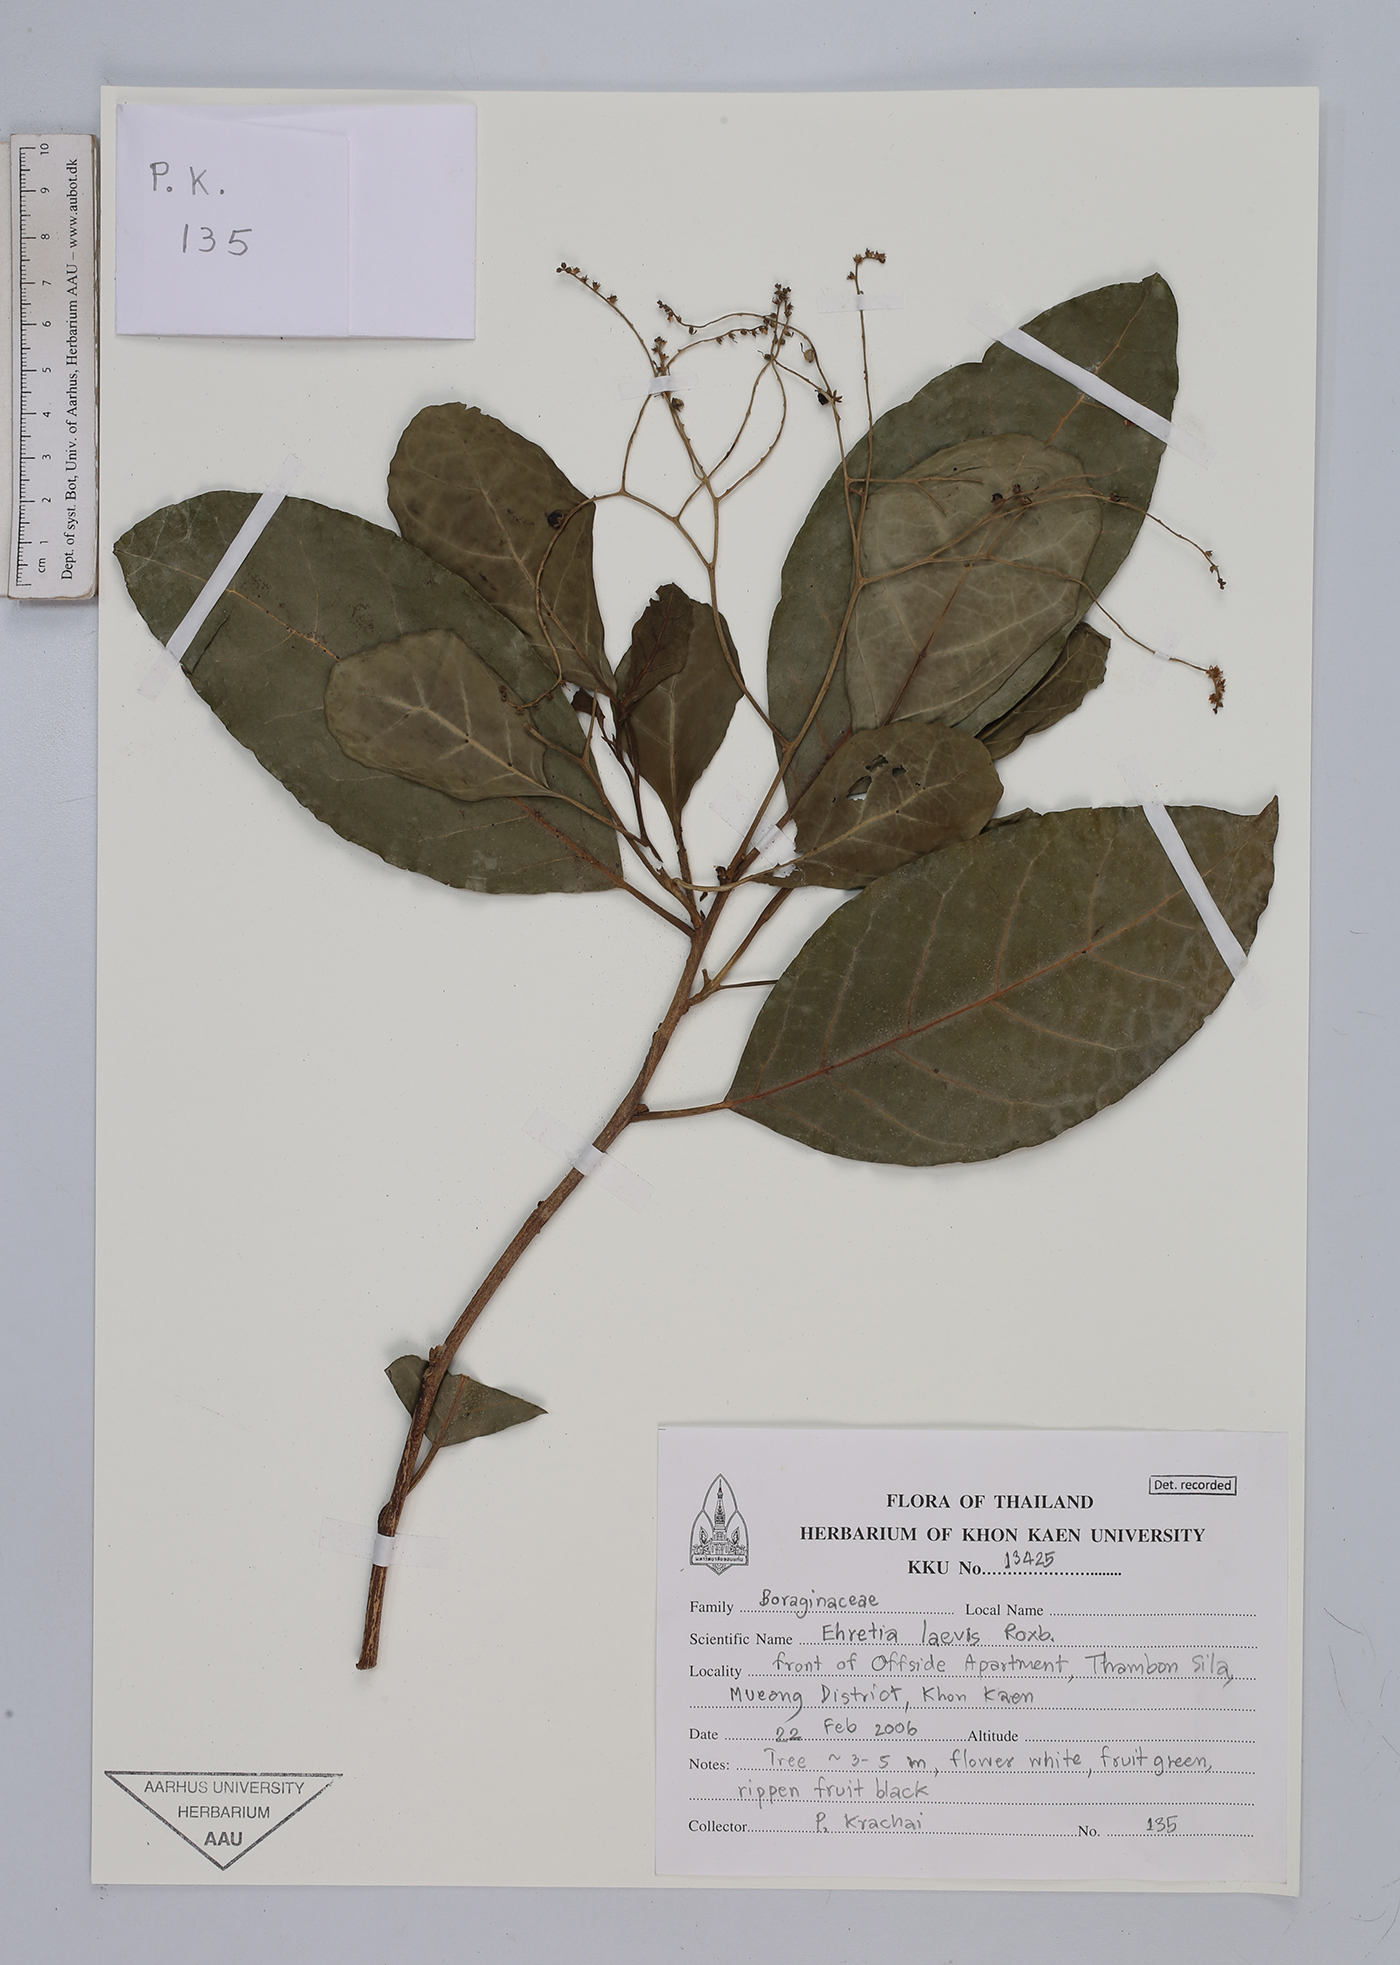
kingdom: Plantae
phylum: Tracheophyta
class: Magnoliopsida
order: Boraginales
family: Ehretiaceae
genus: Ehretia
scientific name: Ehretia laevis
